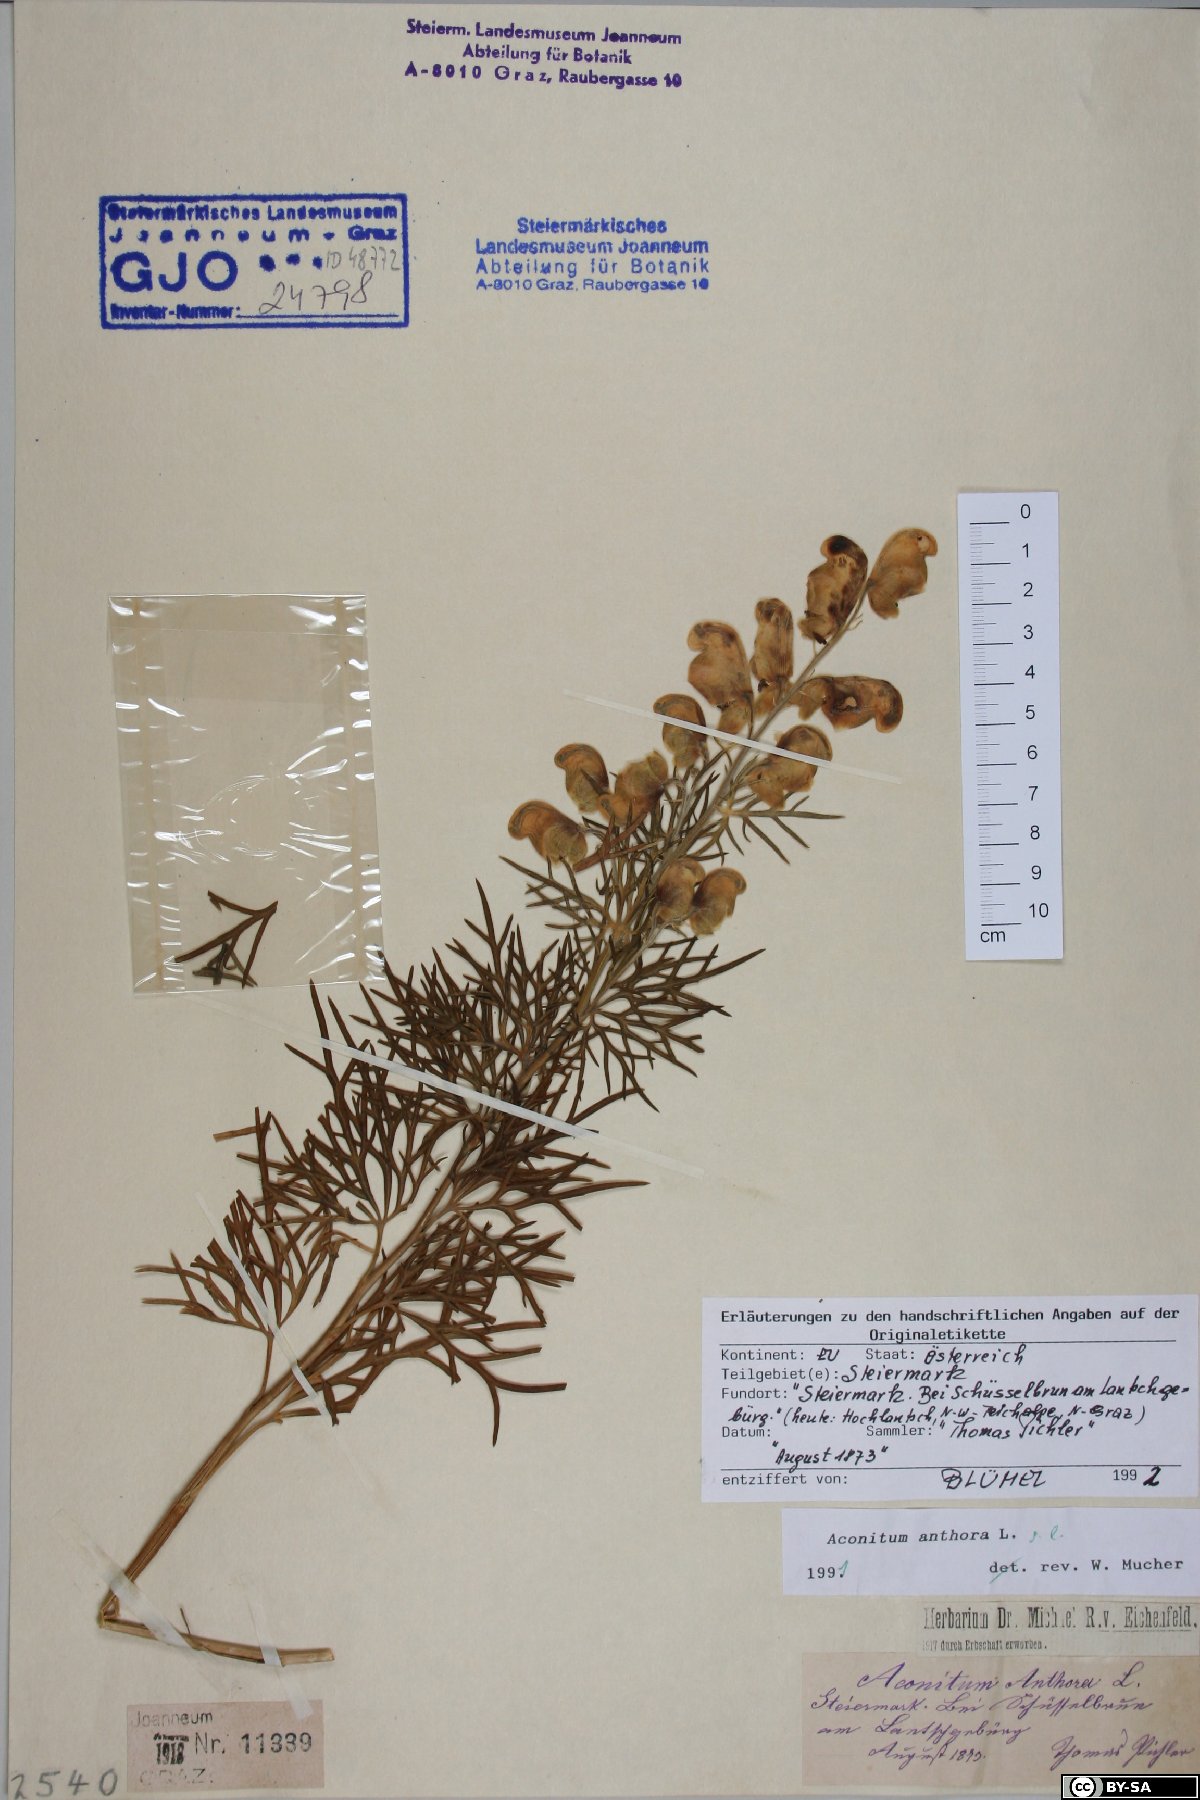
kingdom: Plantae
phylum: Tracheophyta
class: Magnoliopsida
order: Ranunculales
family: Ranunculaceae
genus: Aconitum
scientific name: Aconitum anthora
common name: Yellow monkshood
